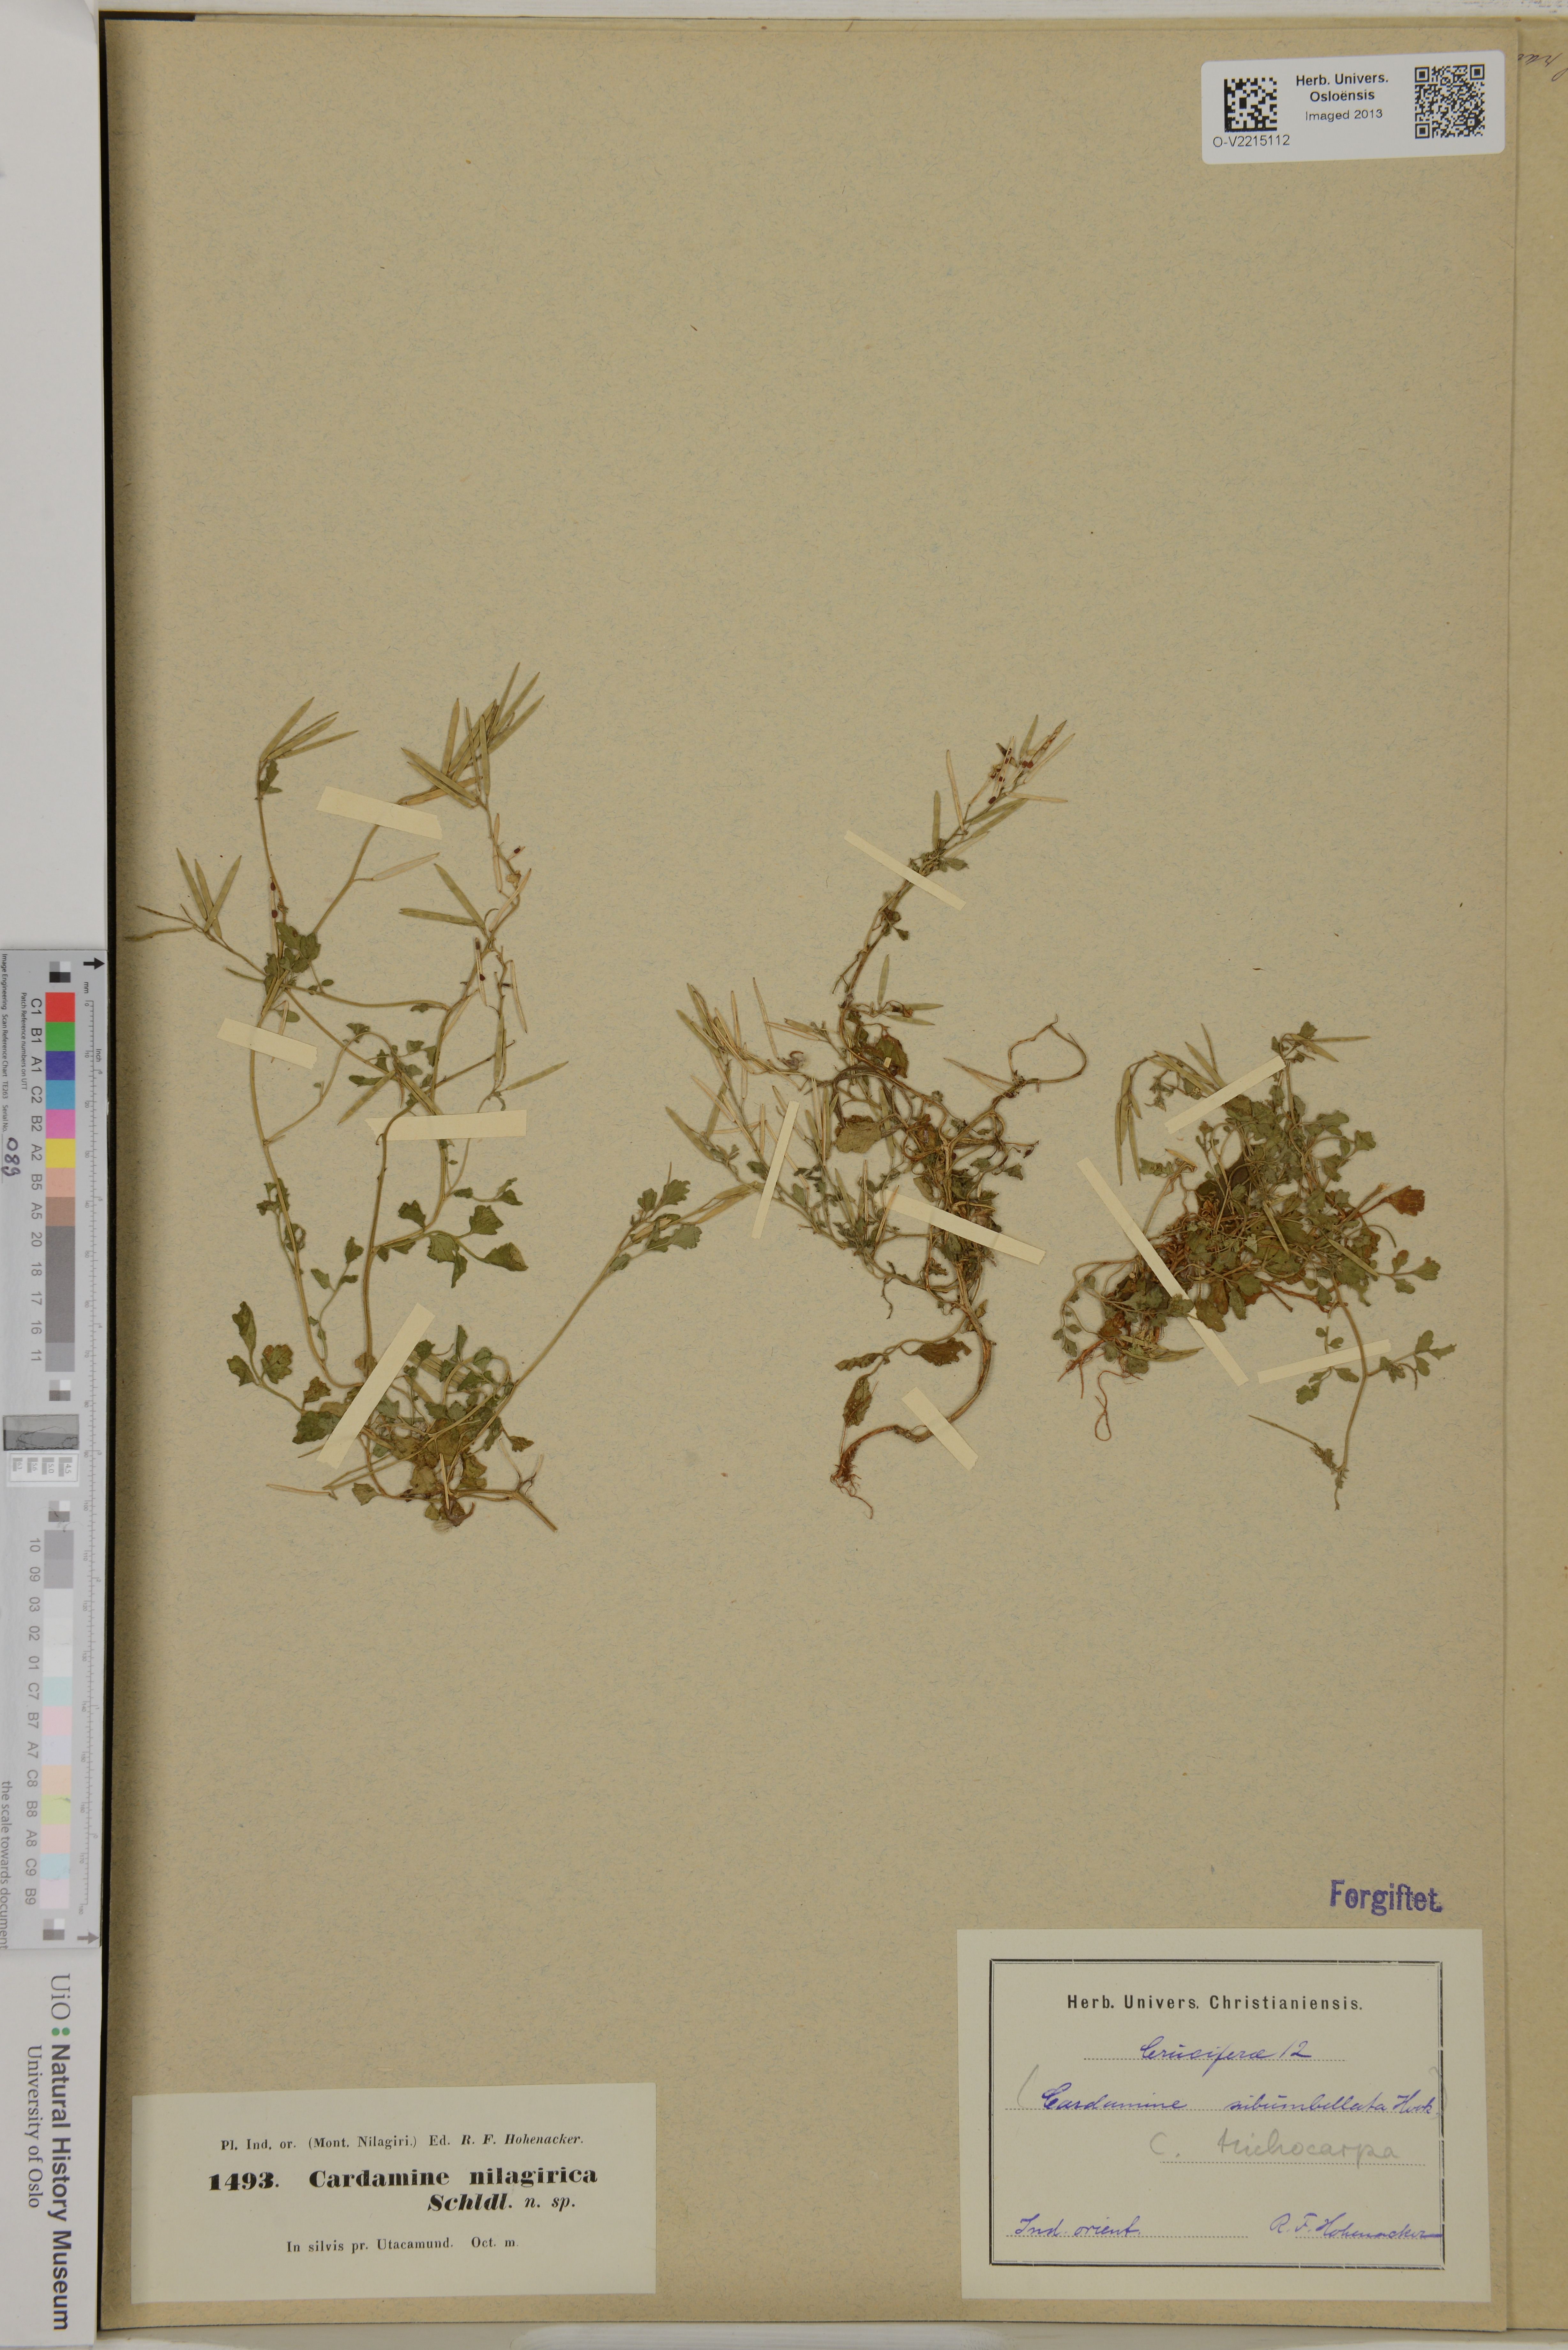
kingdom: Plantae
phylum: Tracheophyta
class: Magnoliopsida
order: Brassicales
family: Brassicaceae
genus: Cardamine
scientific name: Cardamine trichocarpa
